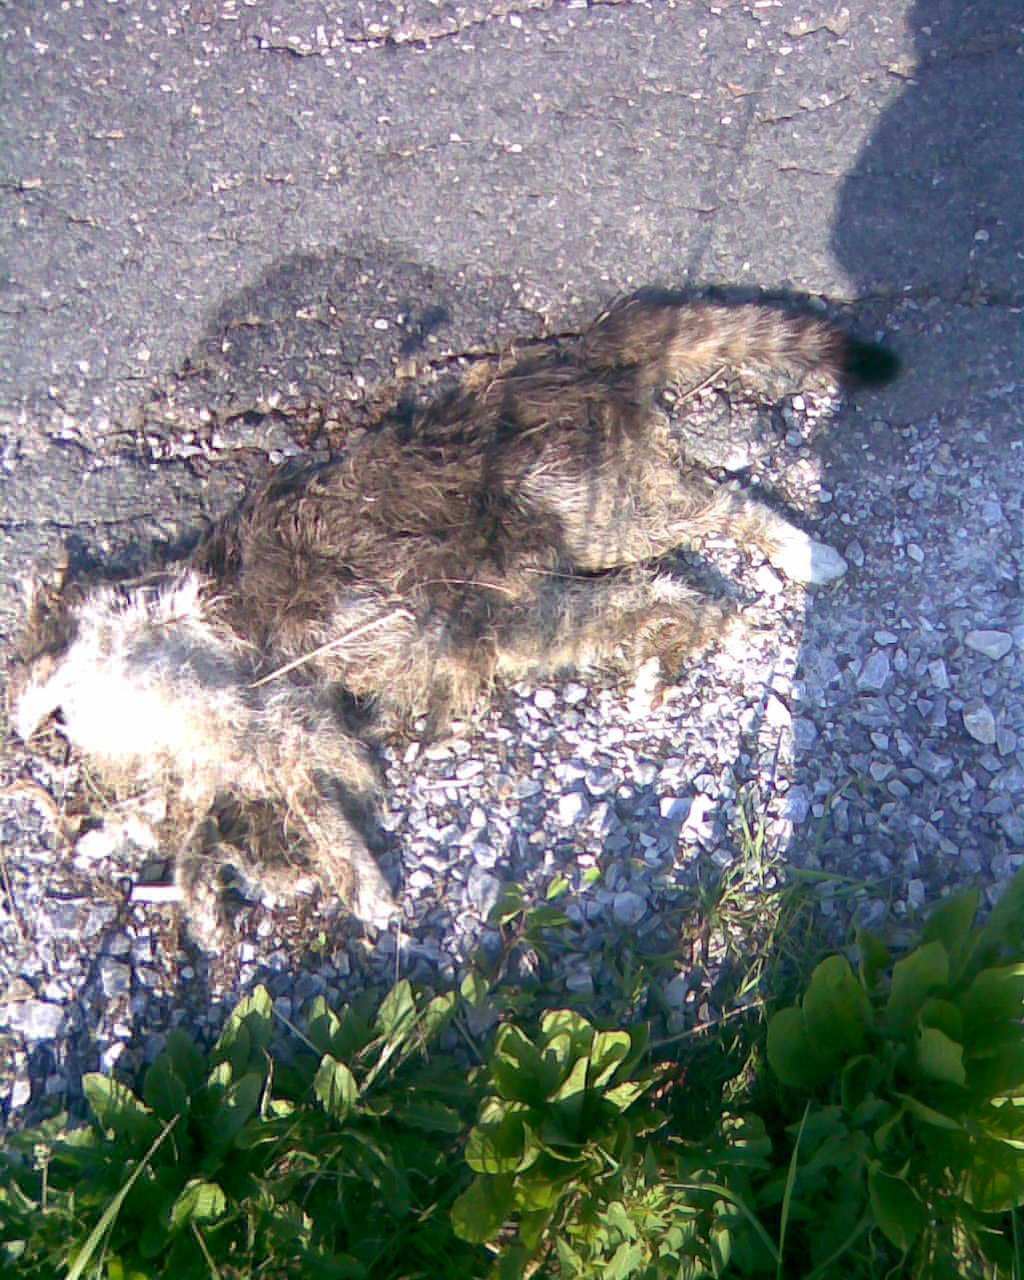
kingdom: Animalia
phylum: Chordata
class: Mammalia
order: Carnivora
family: Felidae
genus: Felis
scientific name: Felis catus
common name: Domestic cat
